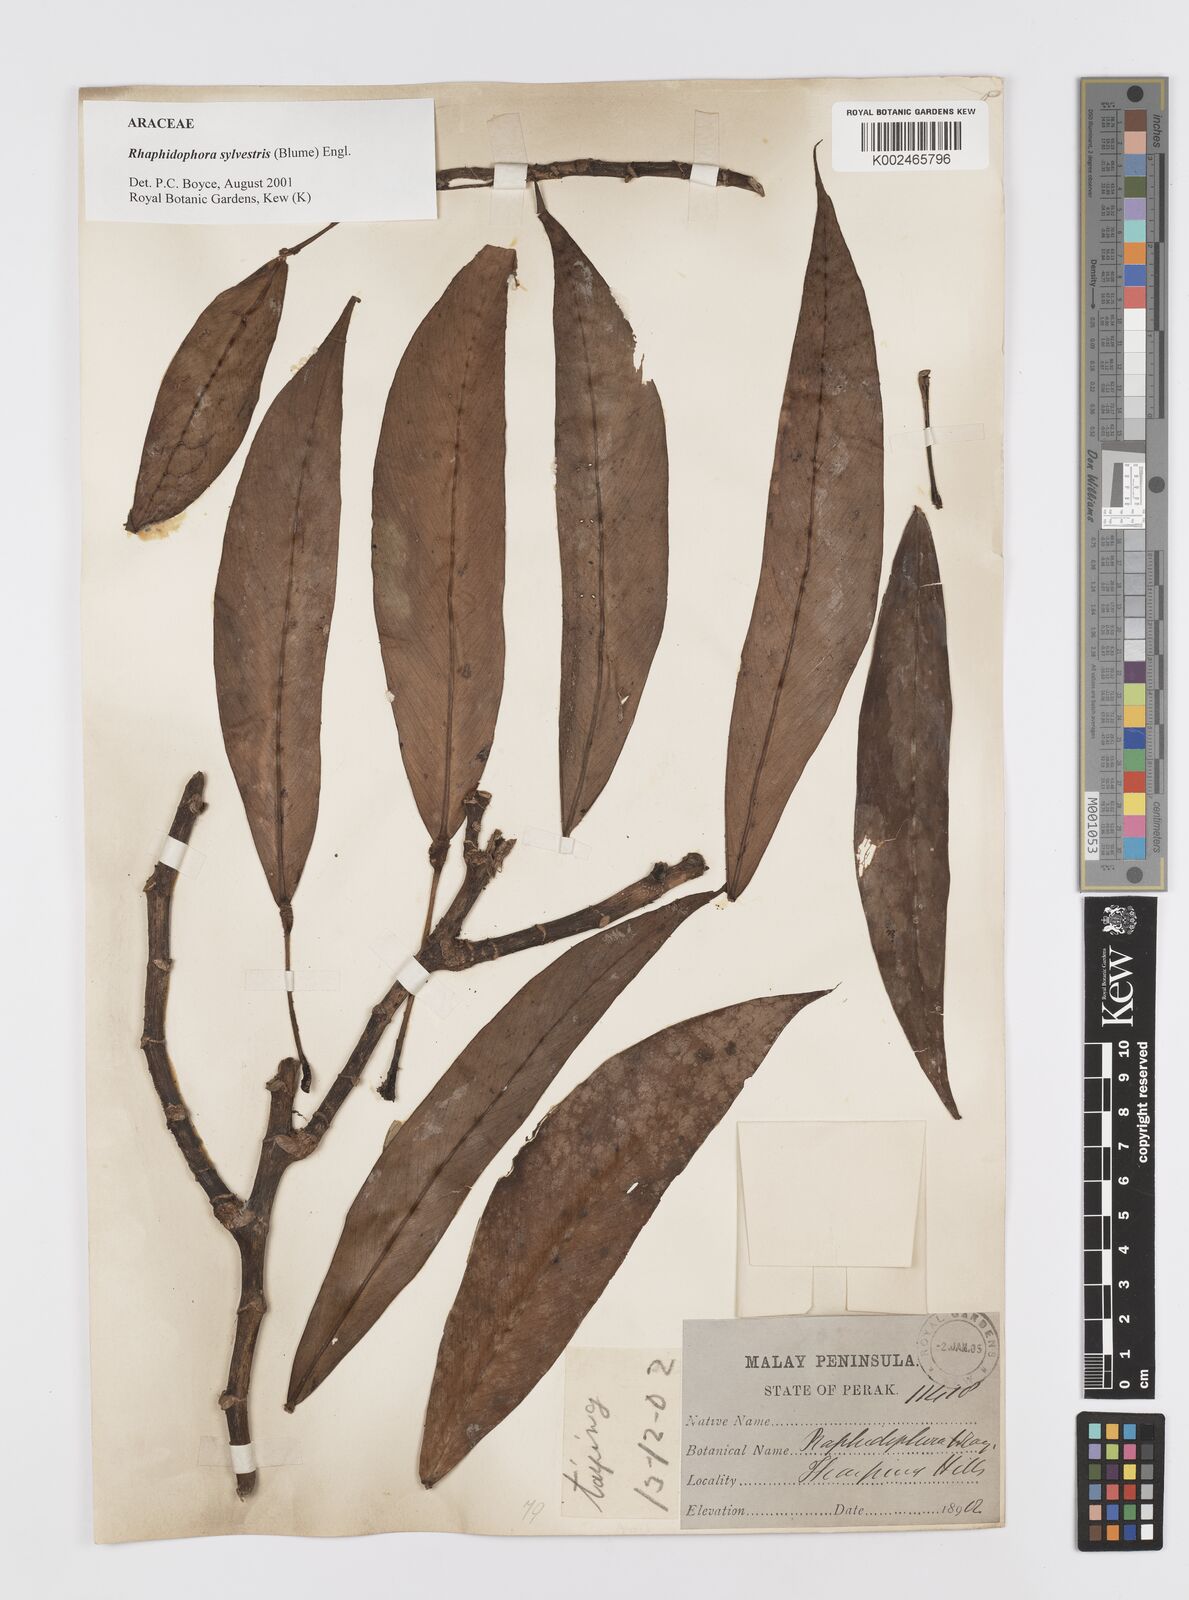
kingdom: Plantae
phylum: Tracheophyta
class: Liliopsida
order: Alismatales
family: Araceae
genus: Rhaphidophora
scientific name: Rhaphidophora sylvestris
